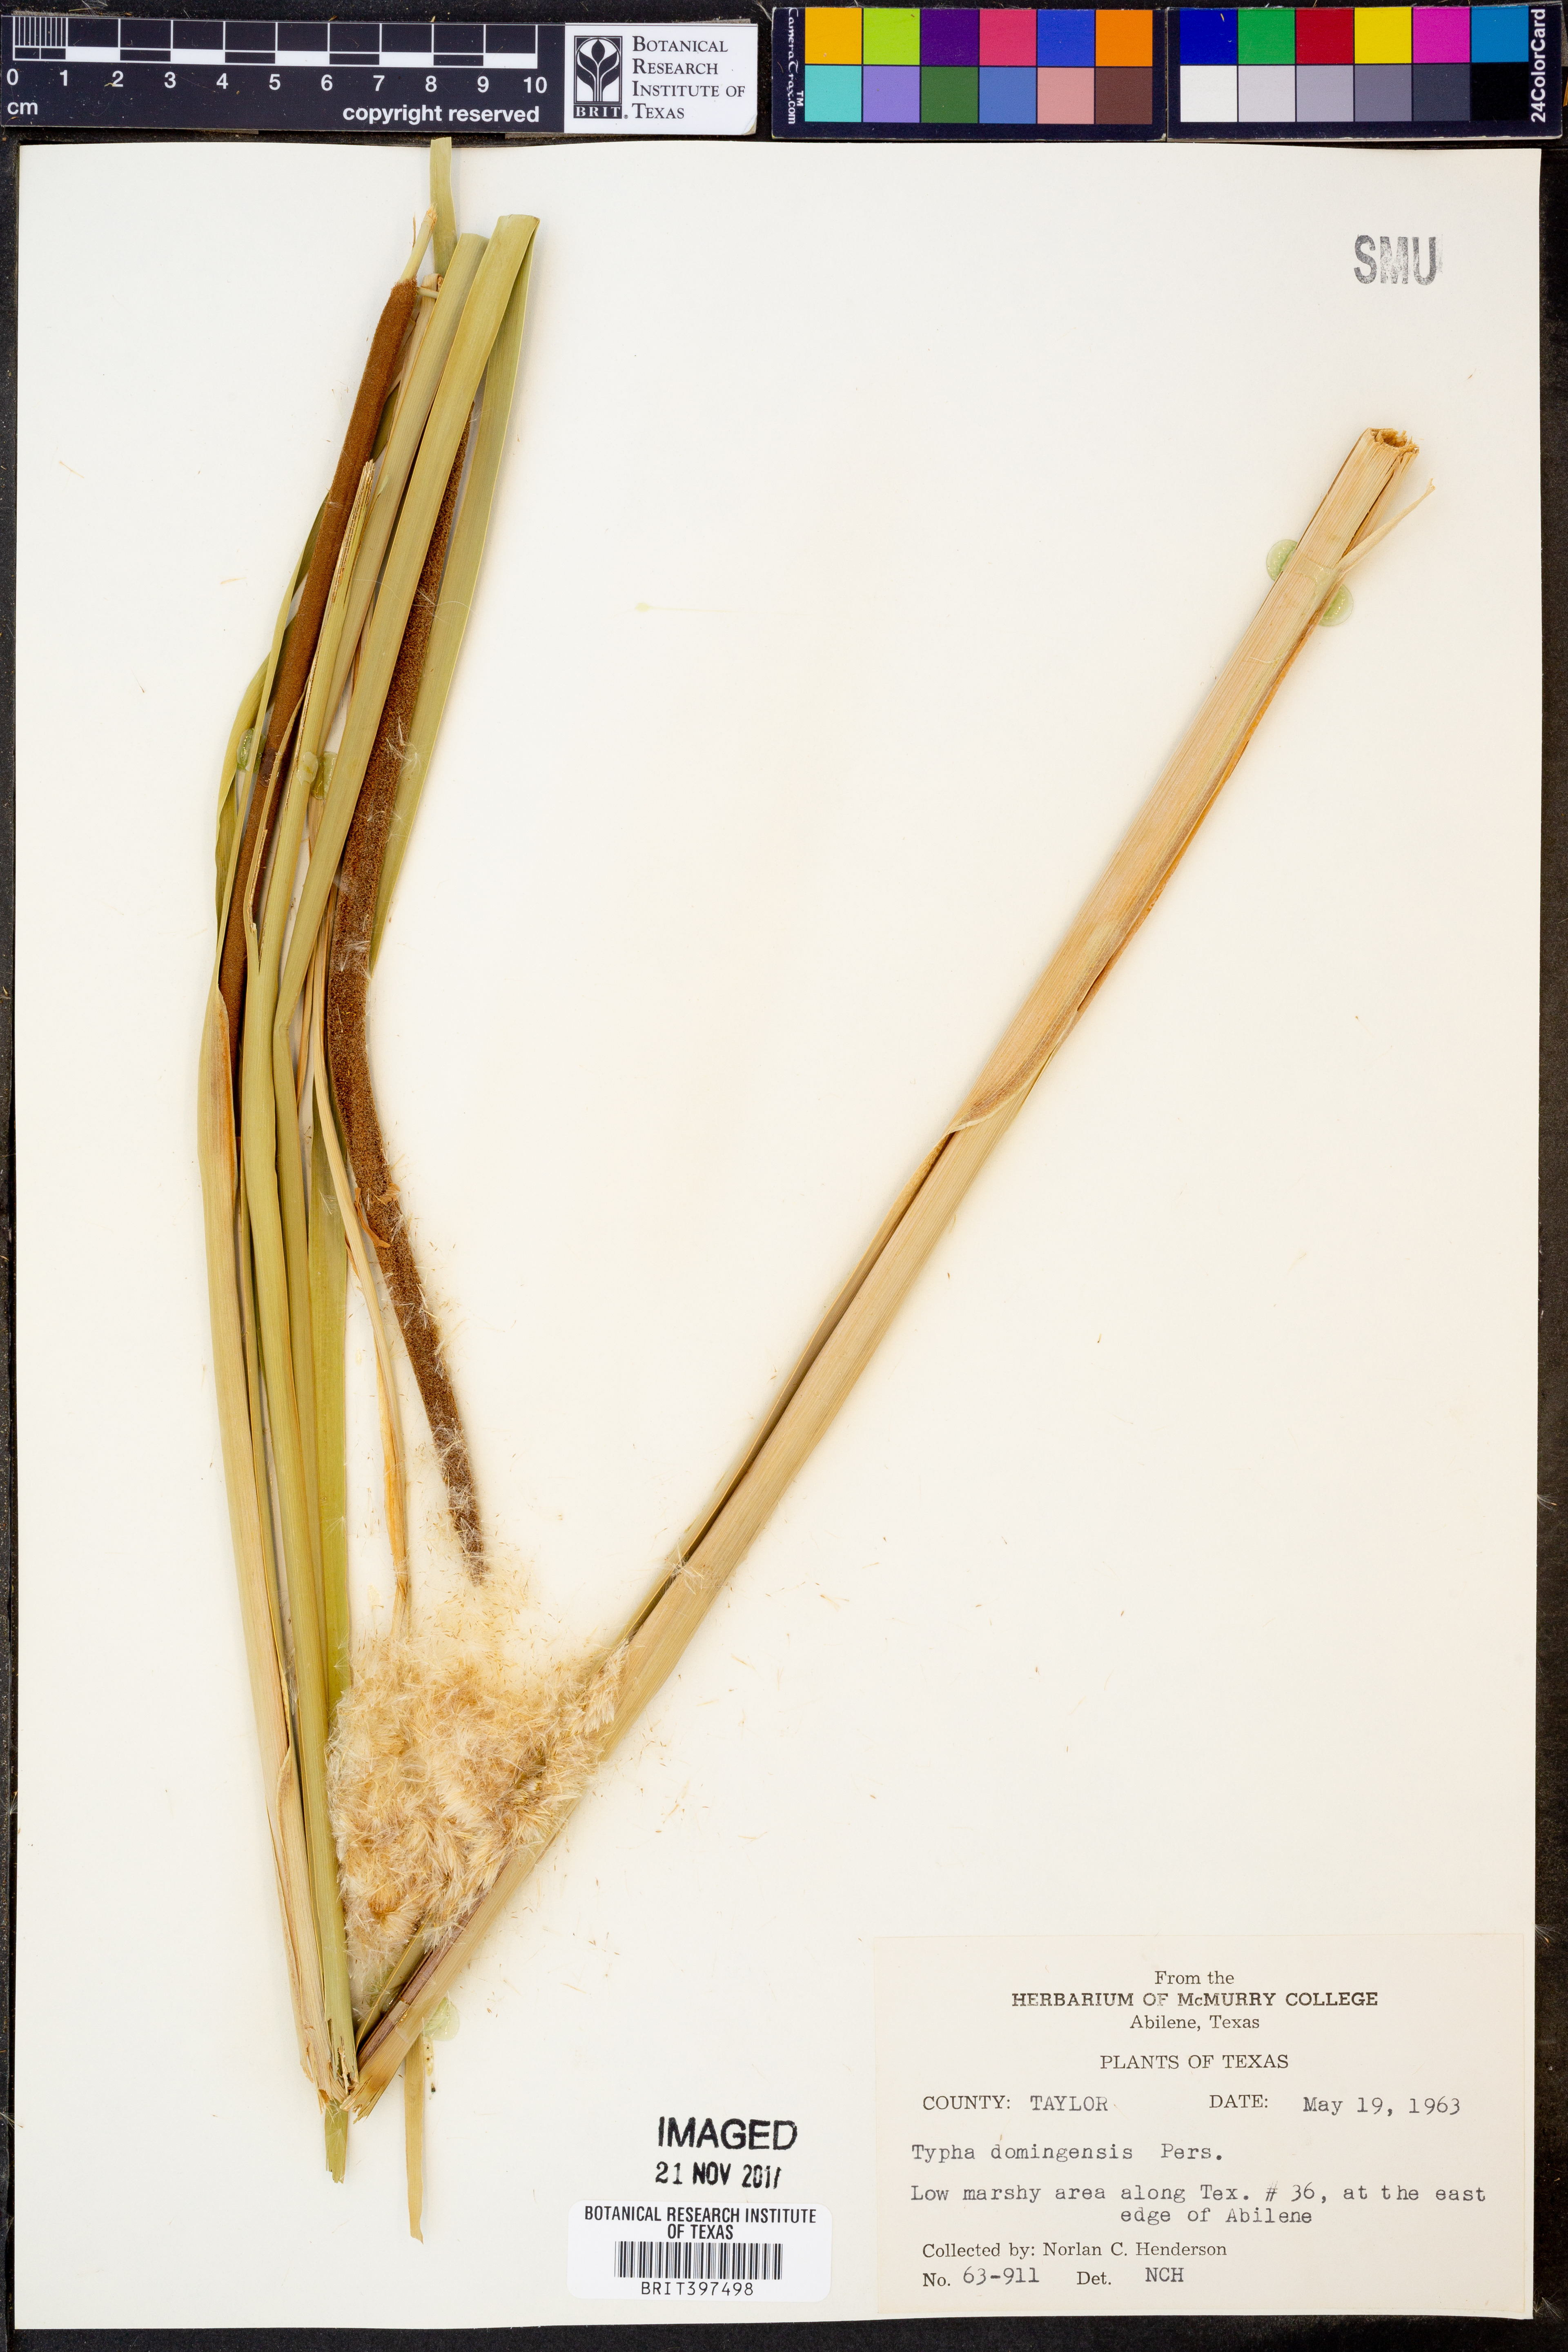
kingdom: Plantae
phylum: Tracheophyta
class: Liliopsida
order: Poales
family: Typhaceae
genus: Typha
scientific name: Typha domingensis
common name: Southern cattail
